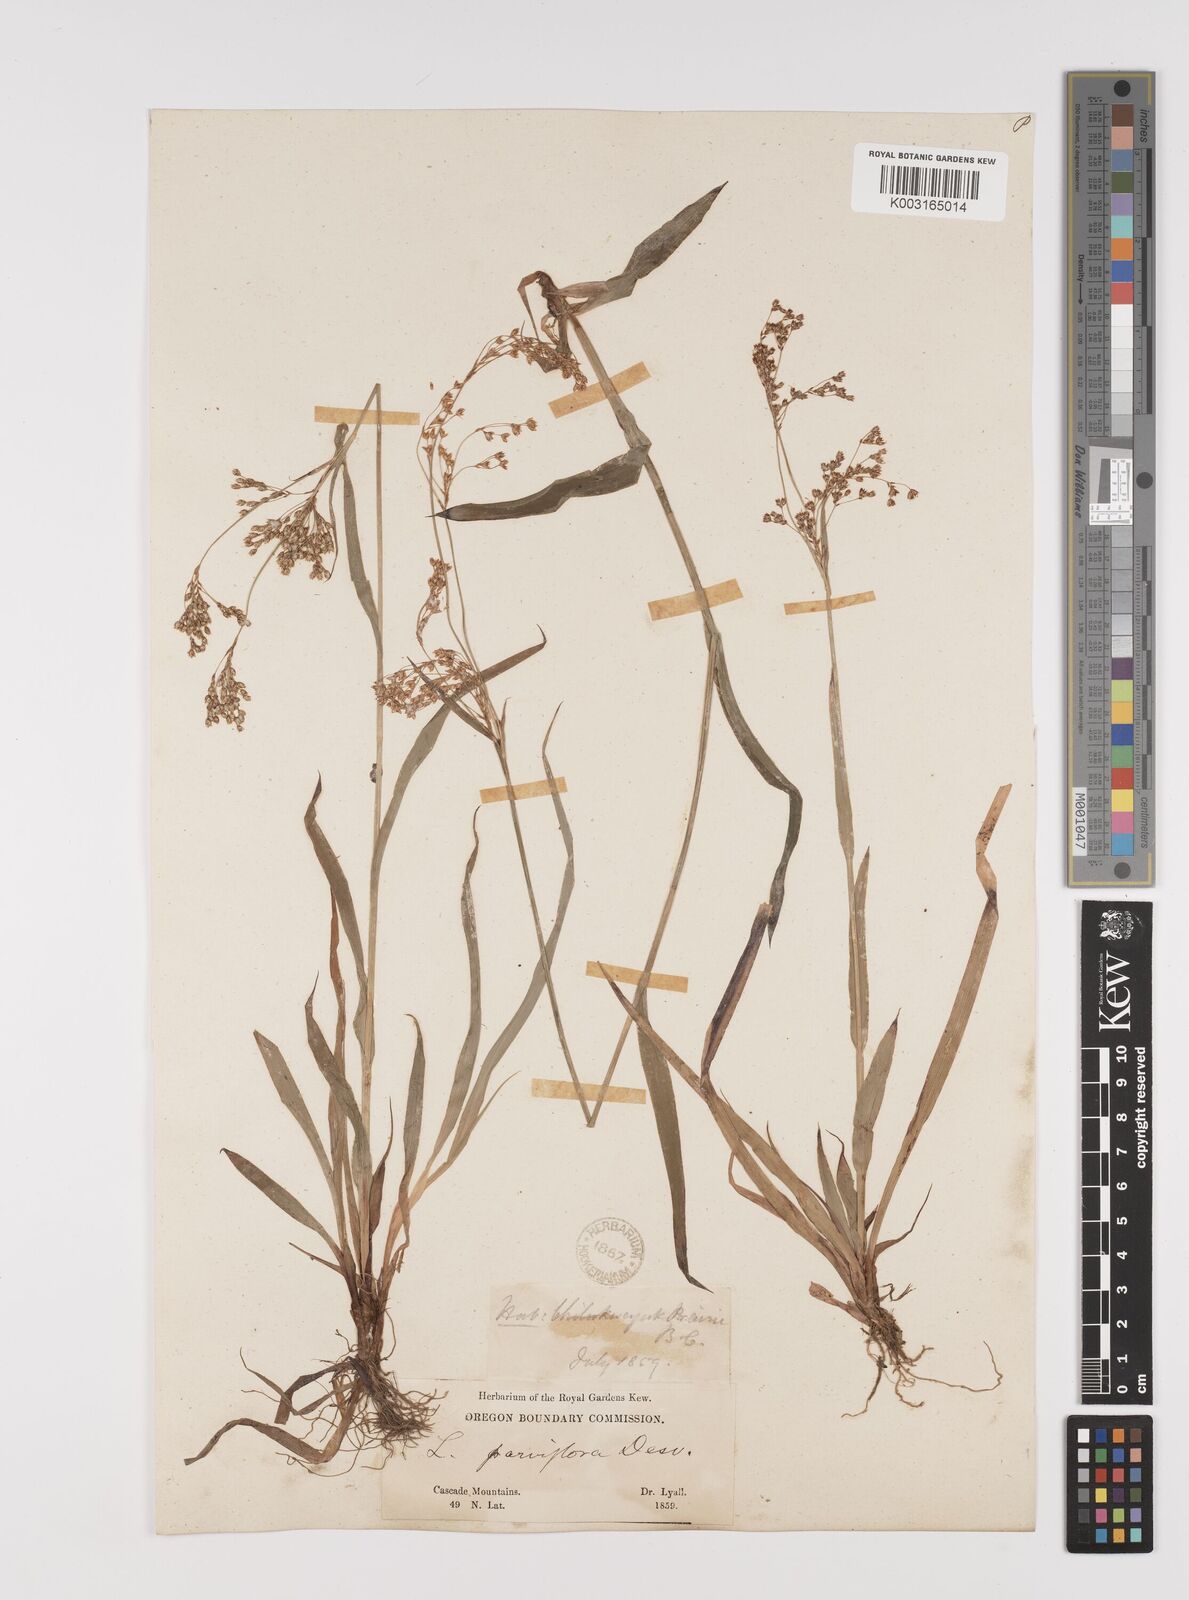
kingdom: Plantae
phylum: Tracheophyta
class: Liliopsida
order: Poales
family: Juncaceae
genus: Luzula
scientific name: Luzula parviflora
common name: Millet woodrush
